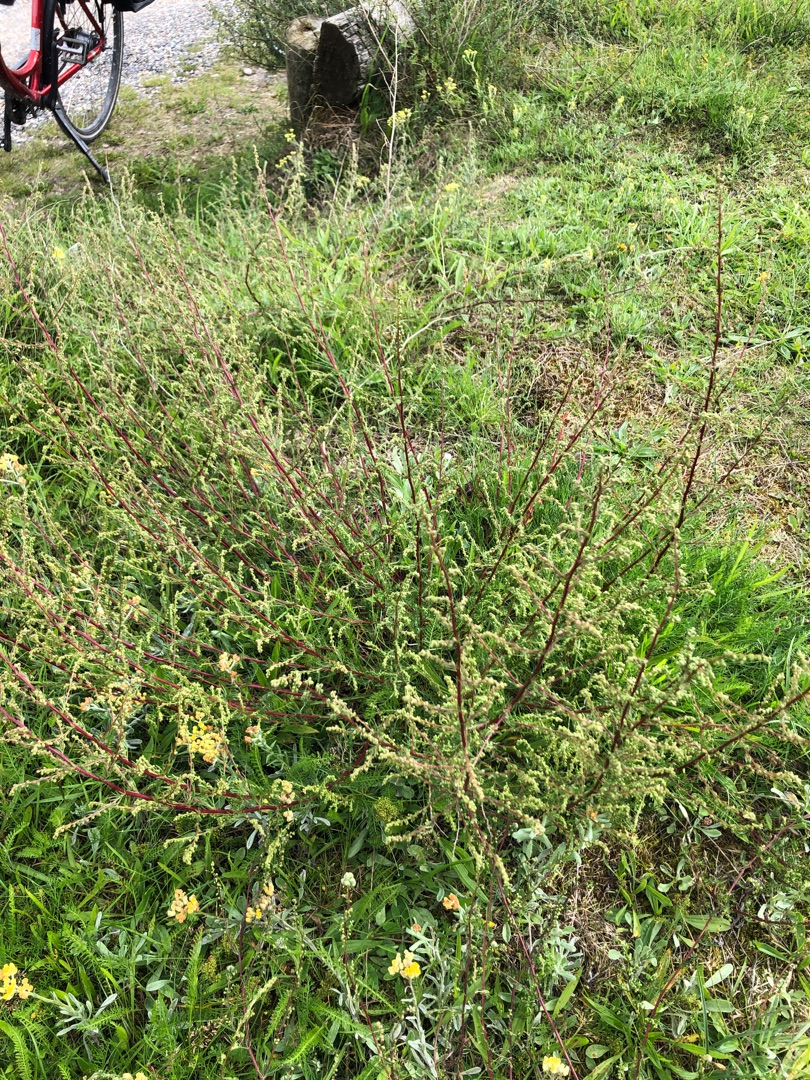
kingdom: Plantae
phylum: Tracheophyta
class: Magnoliopsida
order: Asterales
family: Asteraceae
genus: Artemisia
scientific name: Artemisia campestris
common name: Mark-bynke
